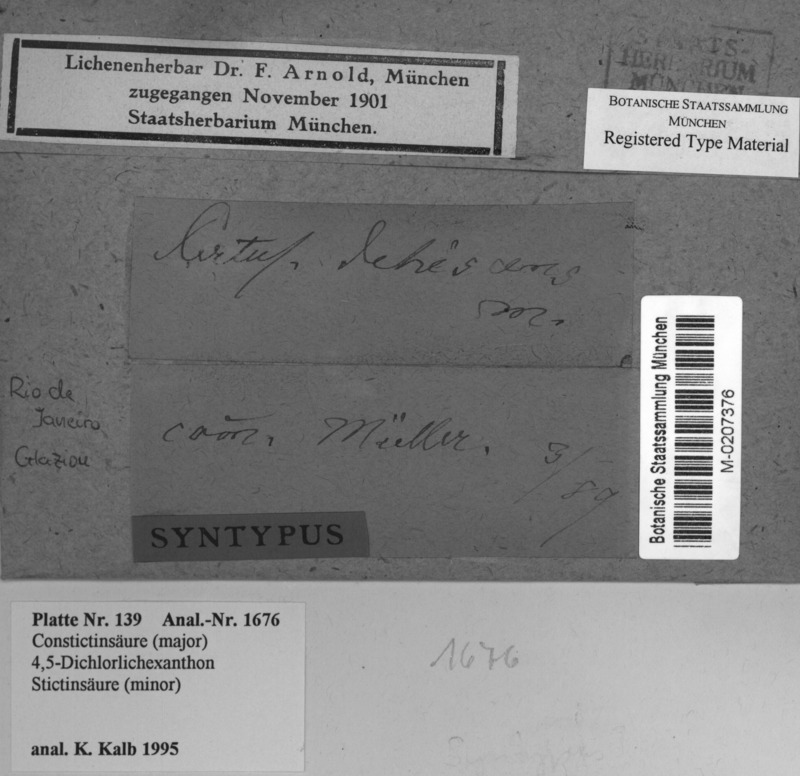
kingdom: Fungi
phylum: Ascomycota
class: Lecanoromycetes
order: Pertusariales
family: Pertusariaceae
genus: Pertusaria
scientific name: Pertusaria dehiscens
